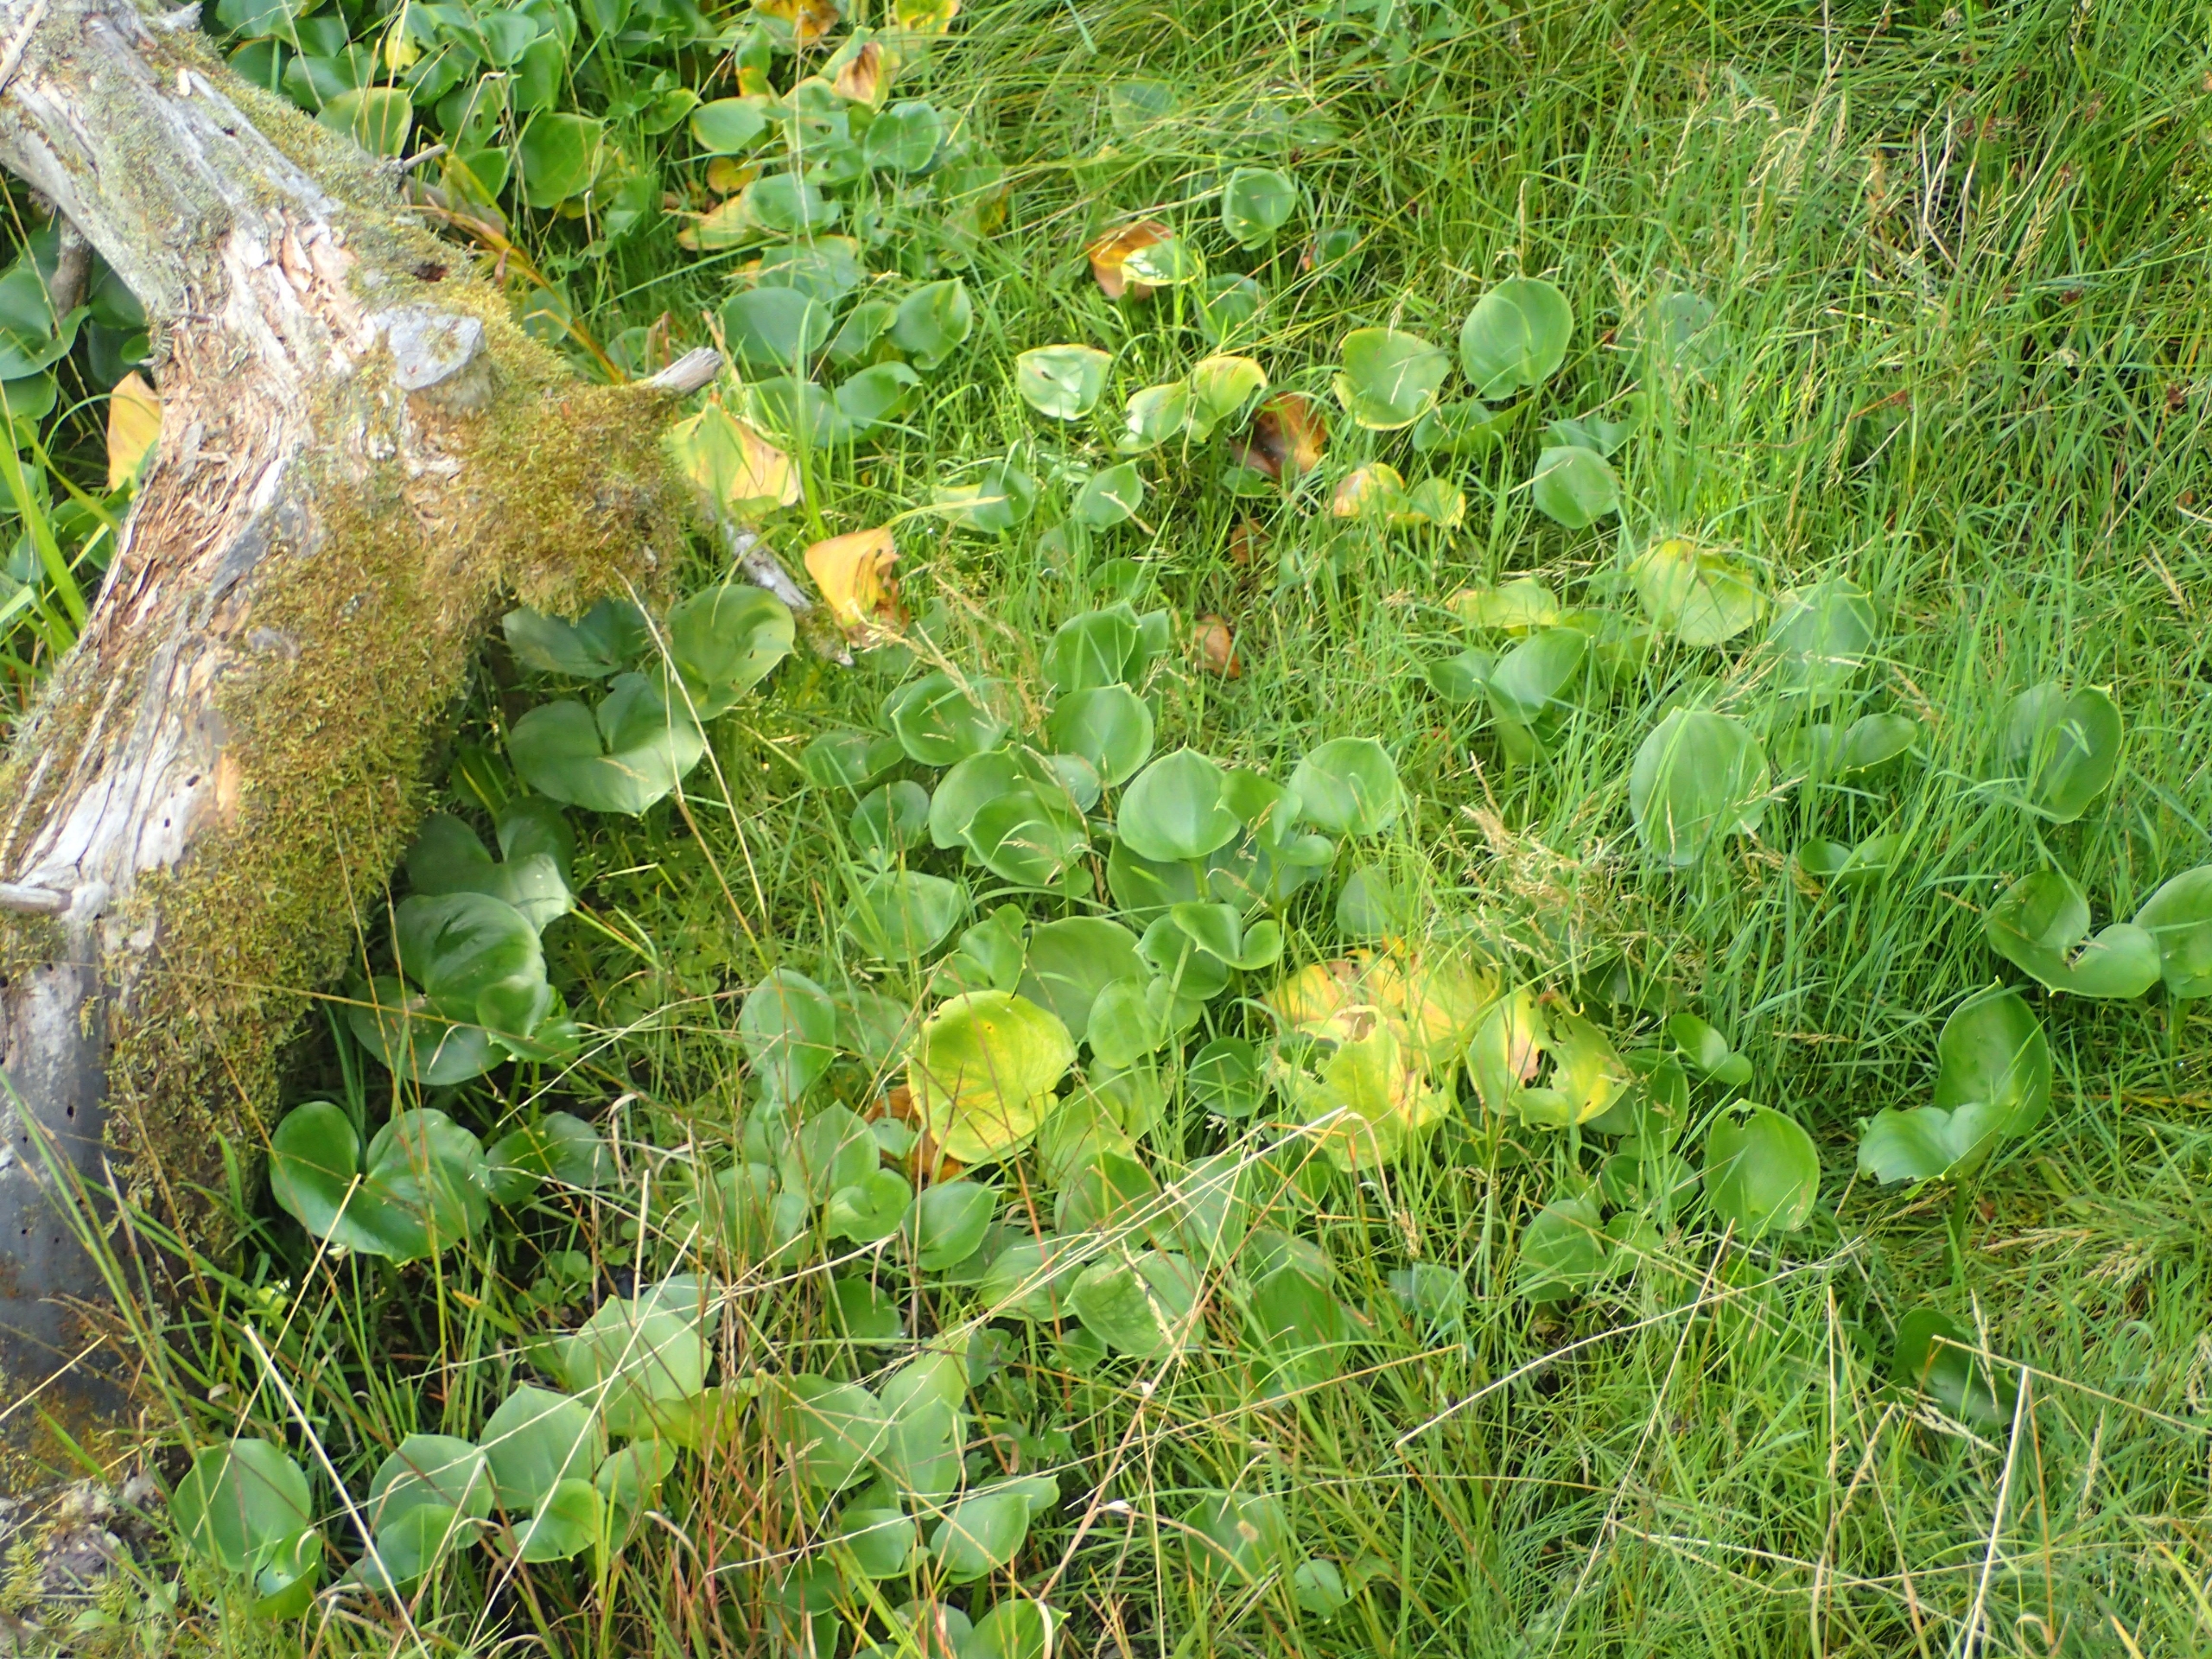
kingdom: Plantae
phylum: Tracheophyta
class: Liliopsida
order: Alismatales
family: Araceae
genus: Calla
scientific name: Calla palustris
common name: Kærmysse
